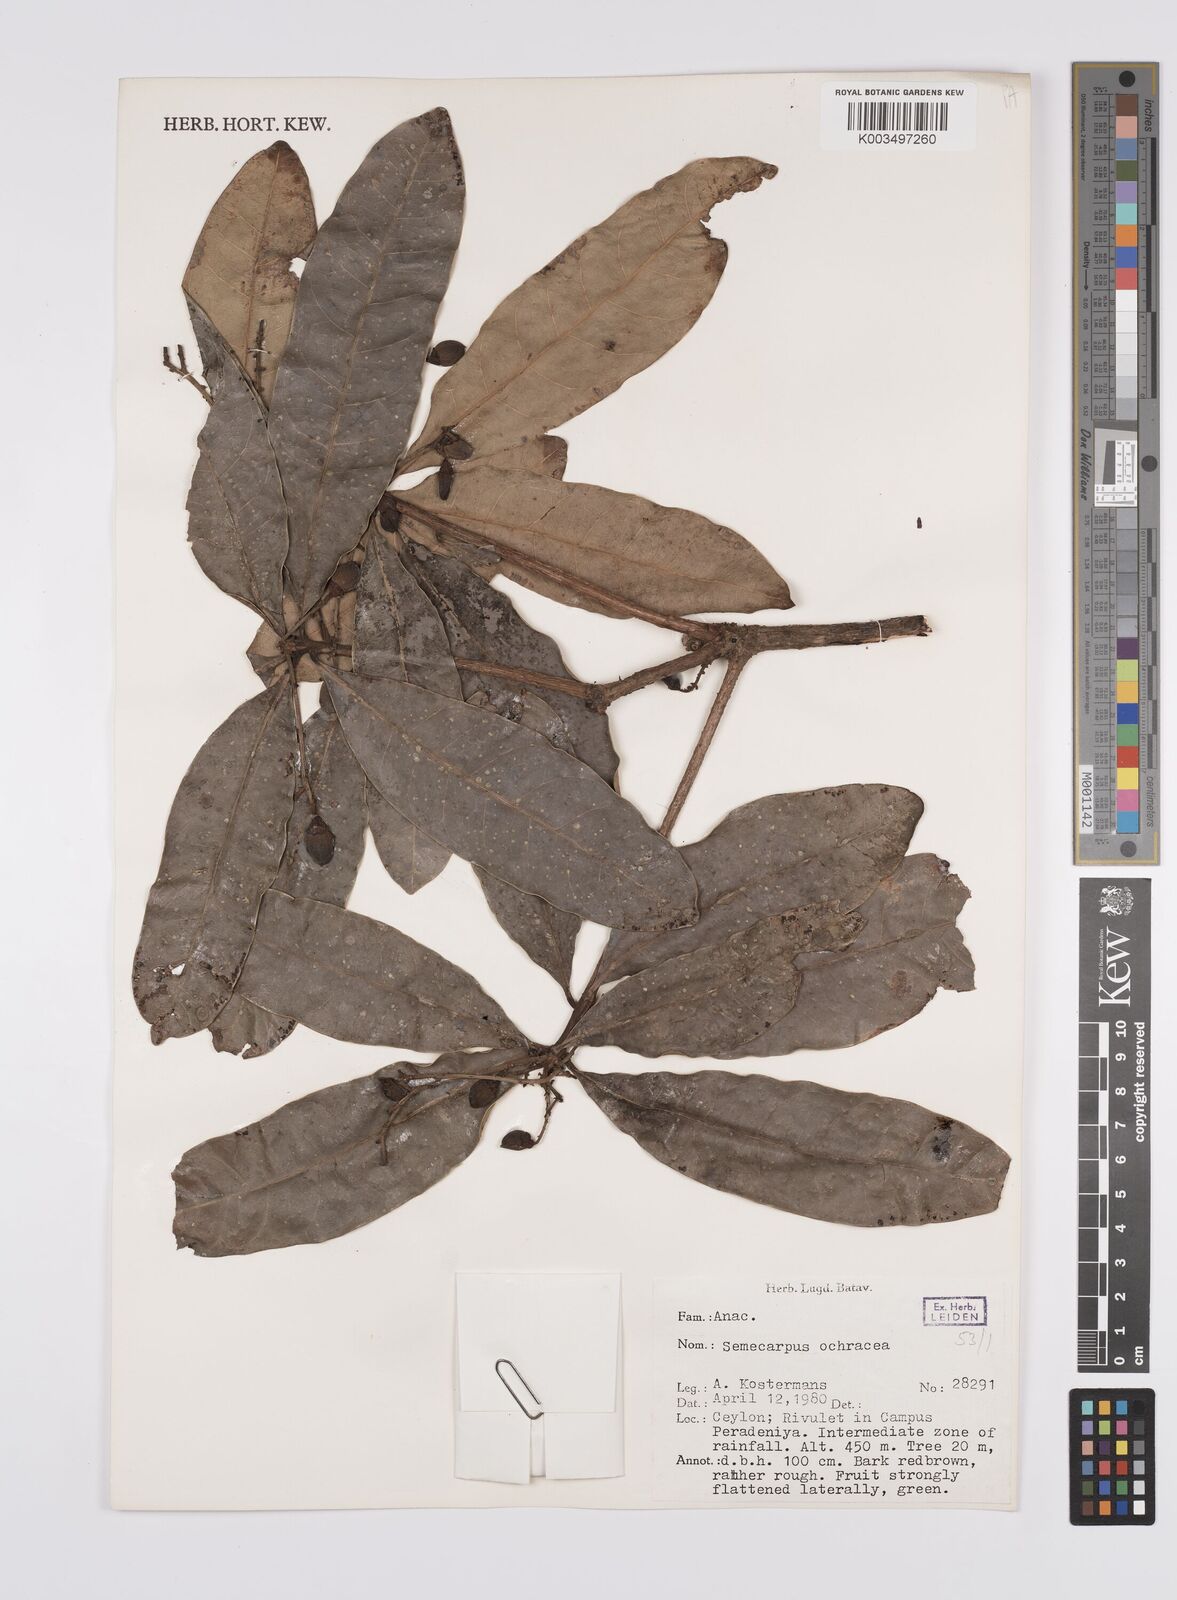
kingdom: Plantae
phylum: Tracheophyta
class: Magnoliopsida
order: Sapindales
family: Anacardiaceae
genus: Semecarpus
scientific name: Semecarpus ochraceus
